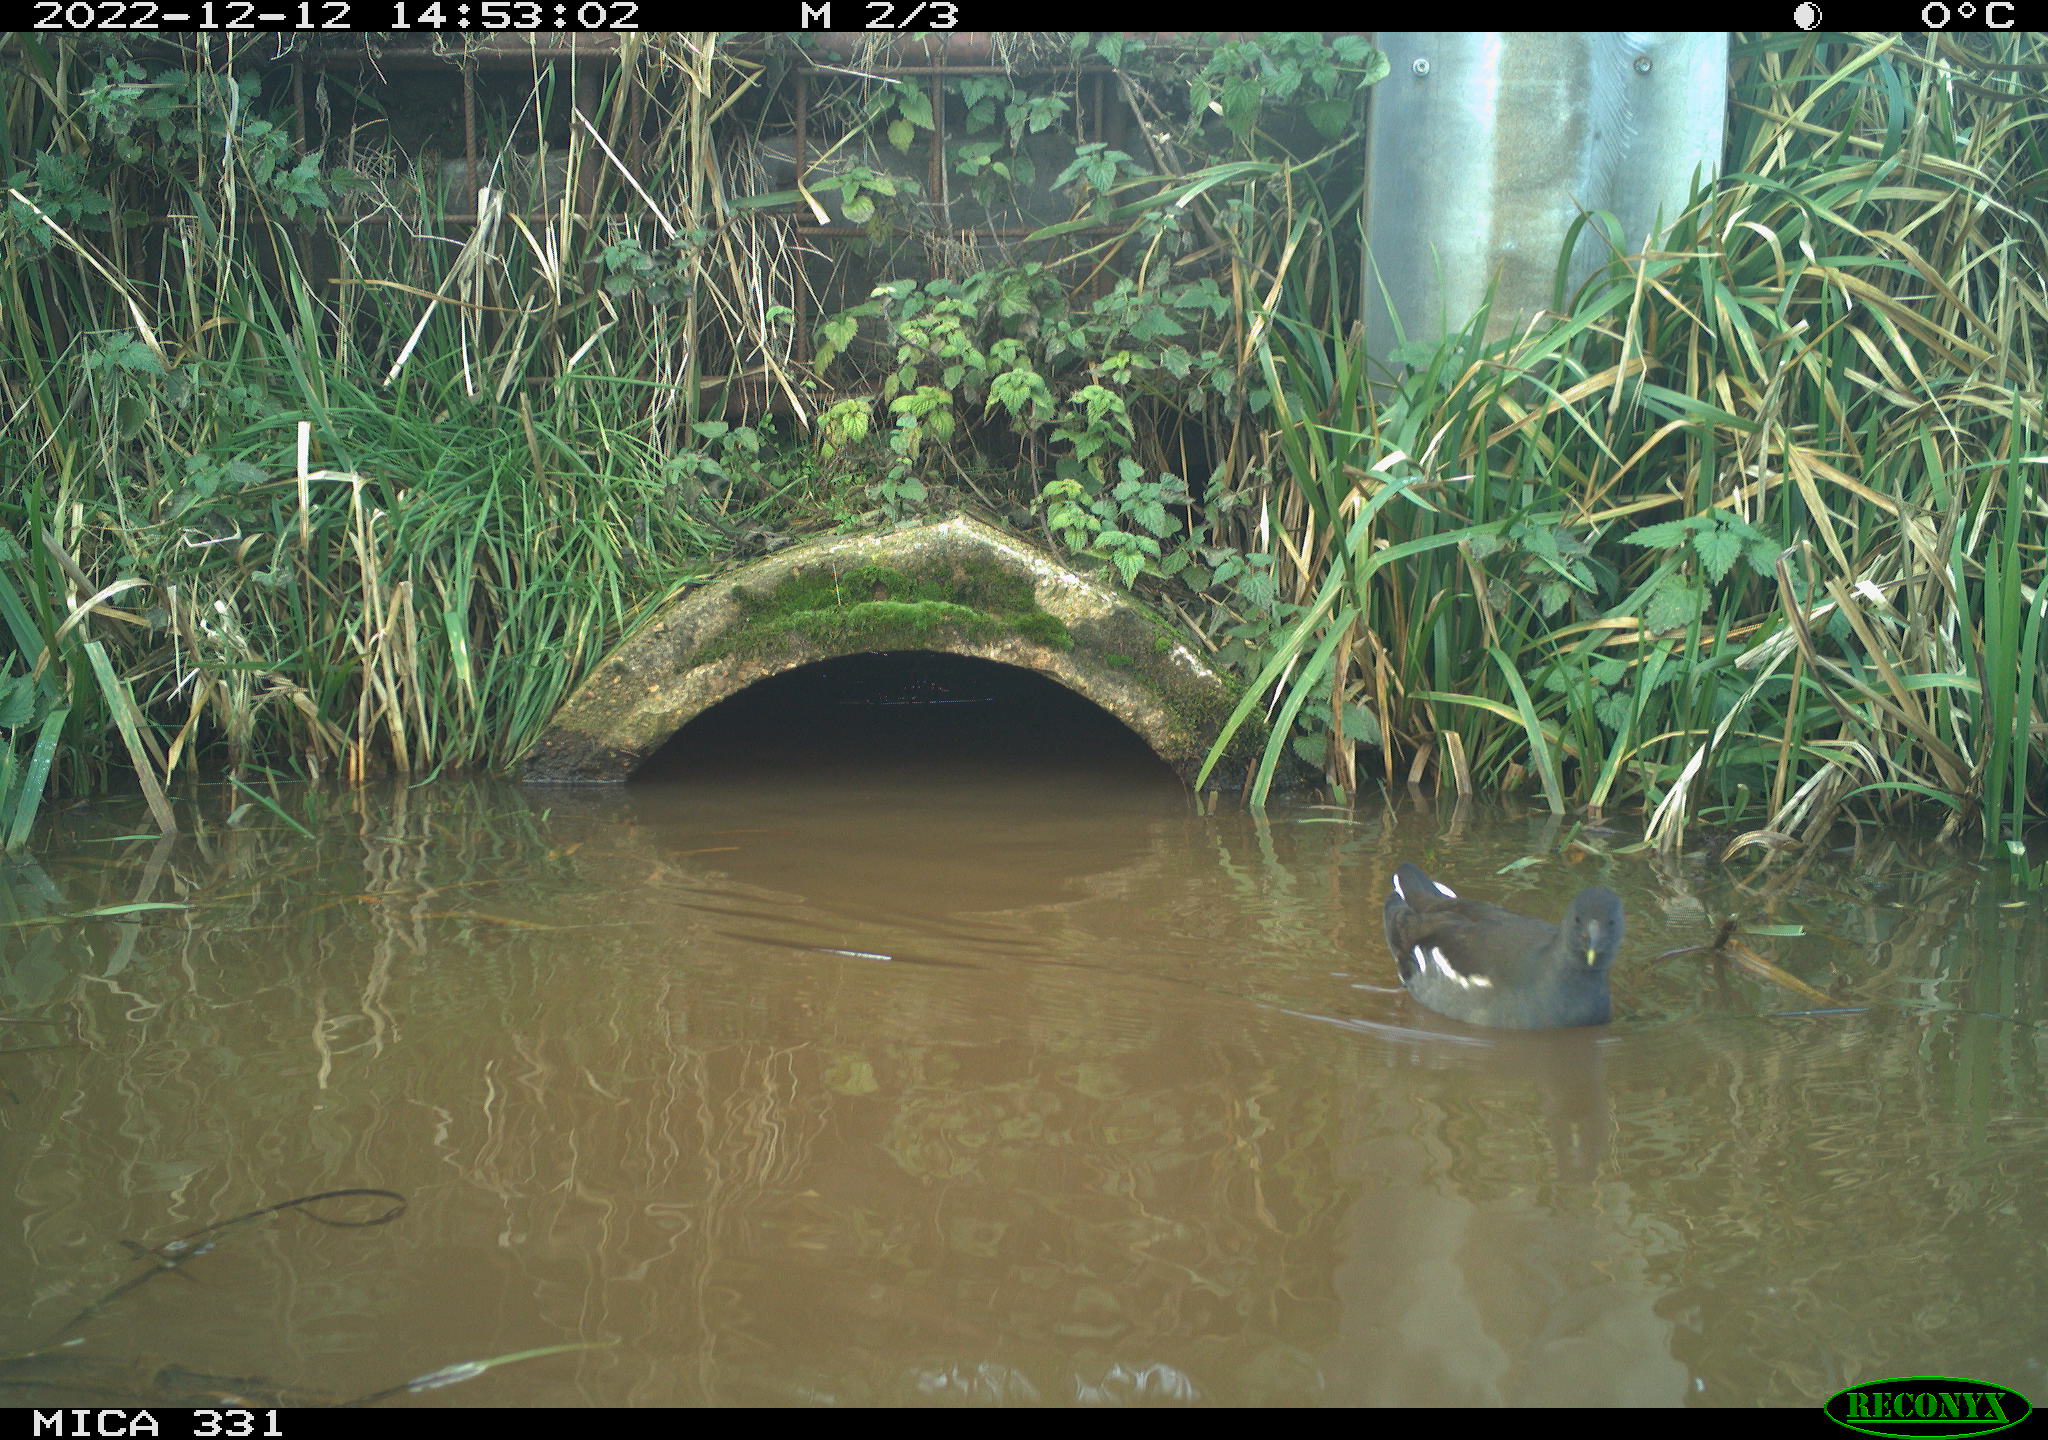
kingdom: Animalia
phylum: Chordata
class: Aves
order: Gruiformes
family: Rallidae
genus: Gallinula
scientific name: Gallinula chloropus
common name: Common moorhen
